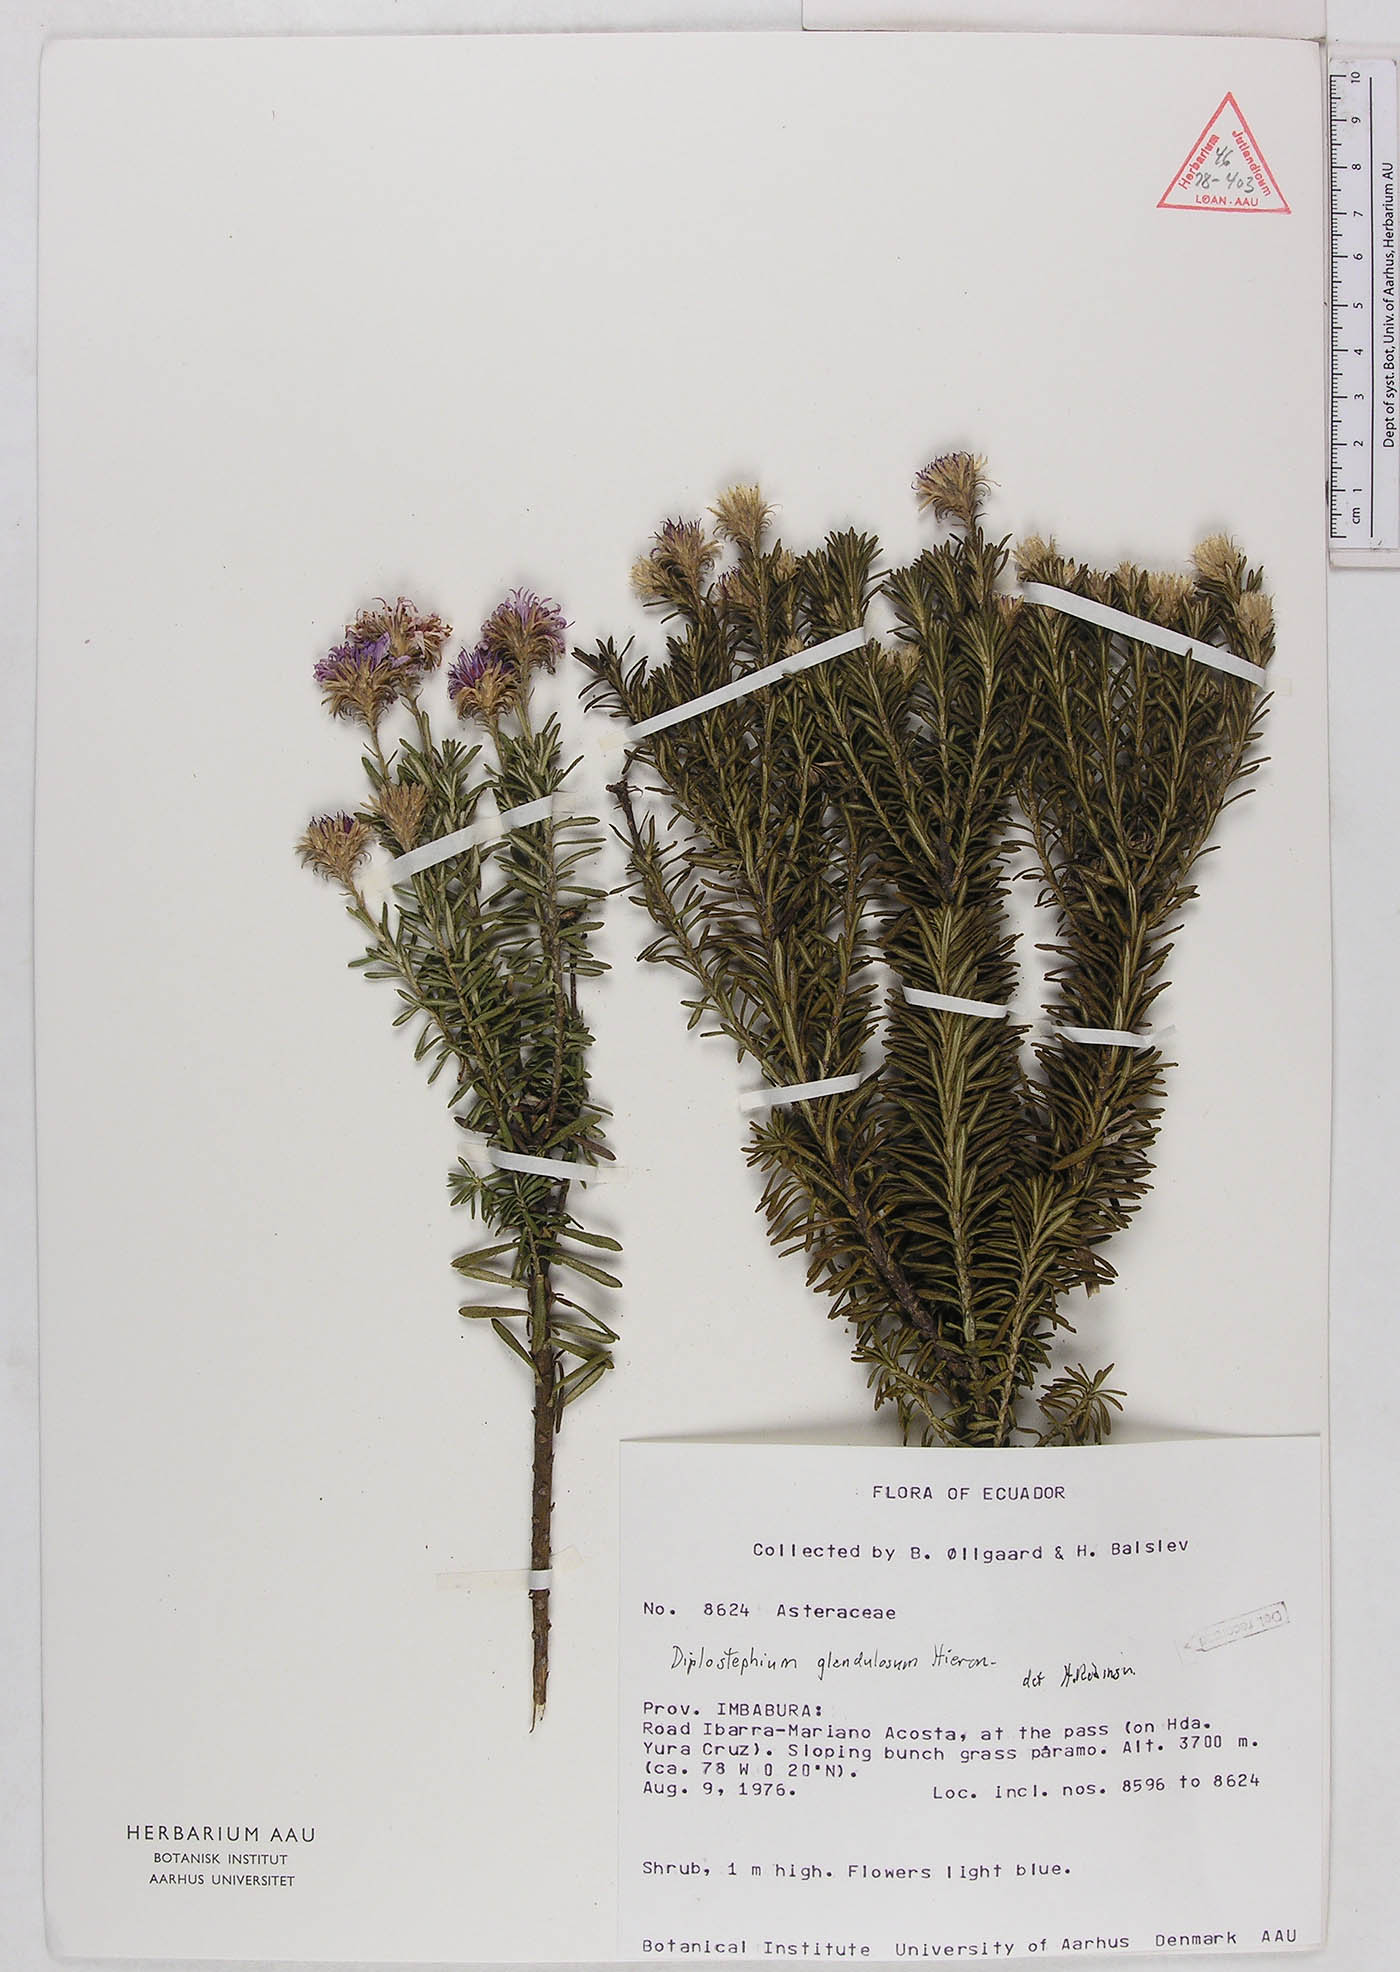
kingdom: Plantae
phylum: Tracheophyta
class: Magnoliopsida
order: Asterales
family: Asteraceae
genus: Diplostephium
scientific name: Diplostephium glandulosum
